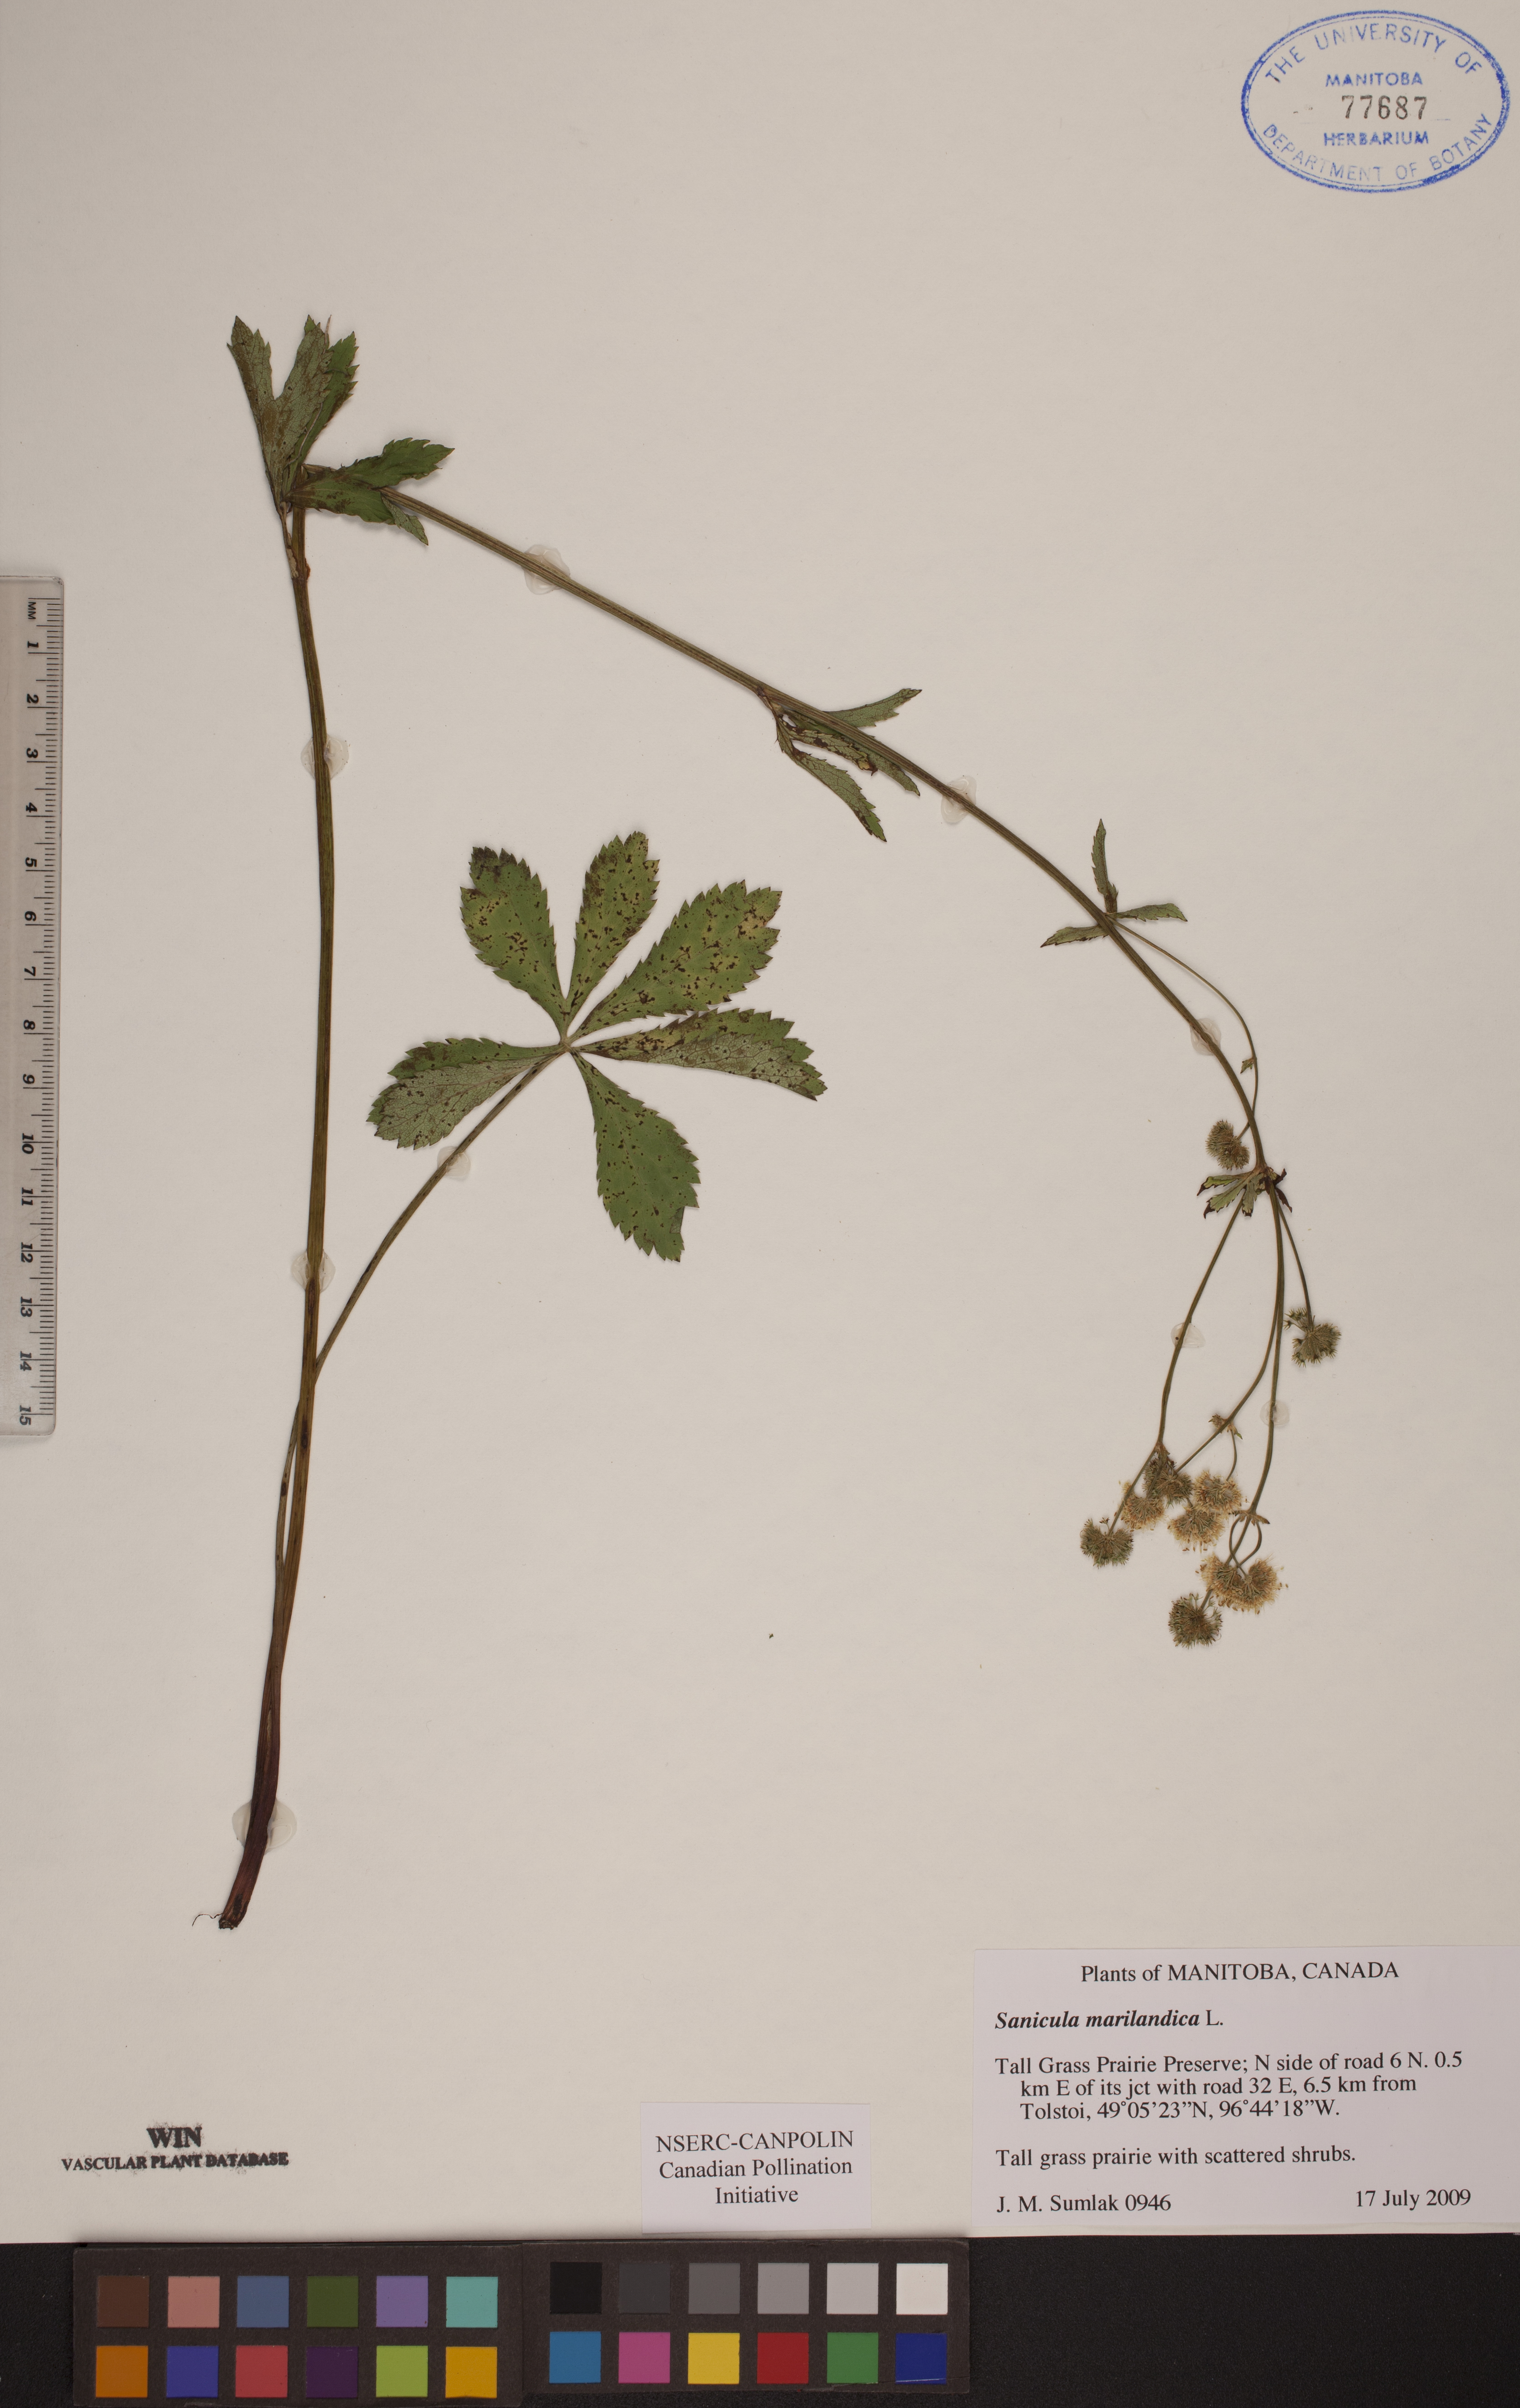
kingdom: Plantae
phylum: Tracheophyta
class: Magnoliopsida
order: Apiales
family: Apiaceae
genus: Sanicula
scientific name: Sanicula marilandica
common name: Black snakeroot
